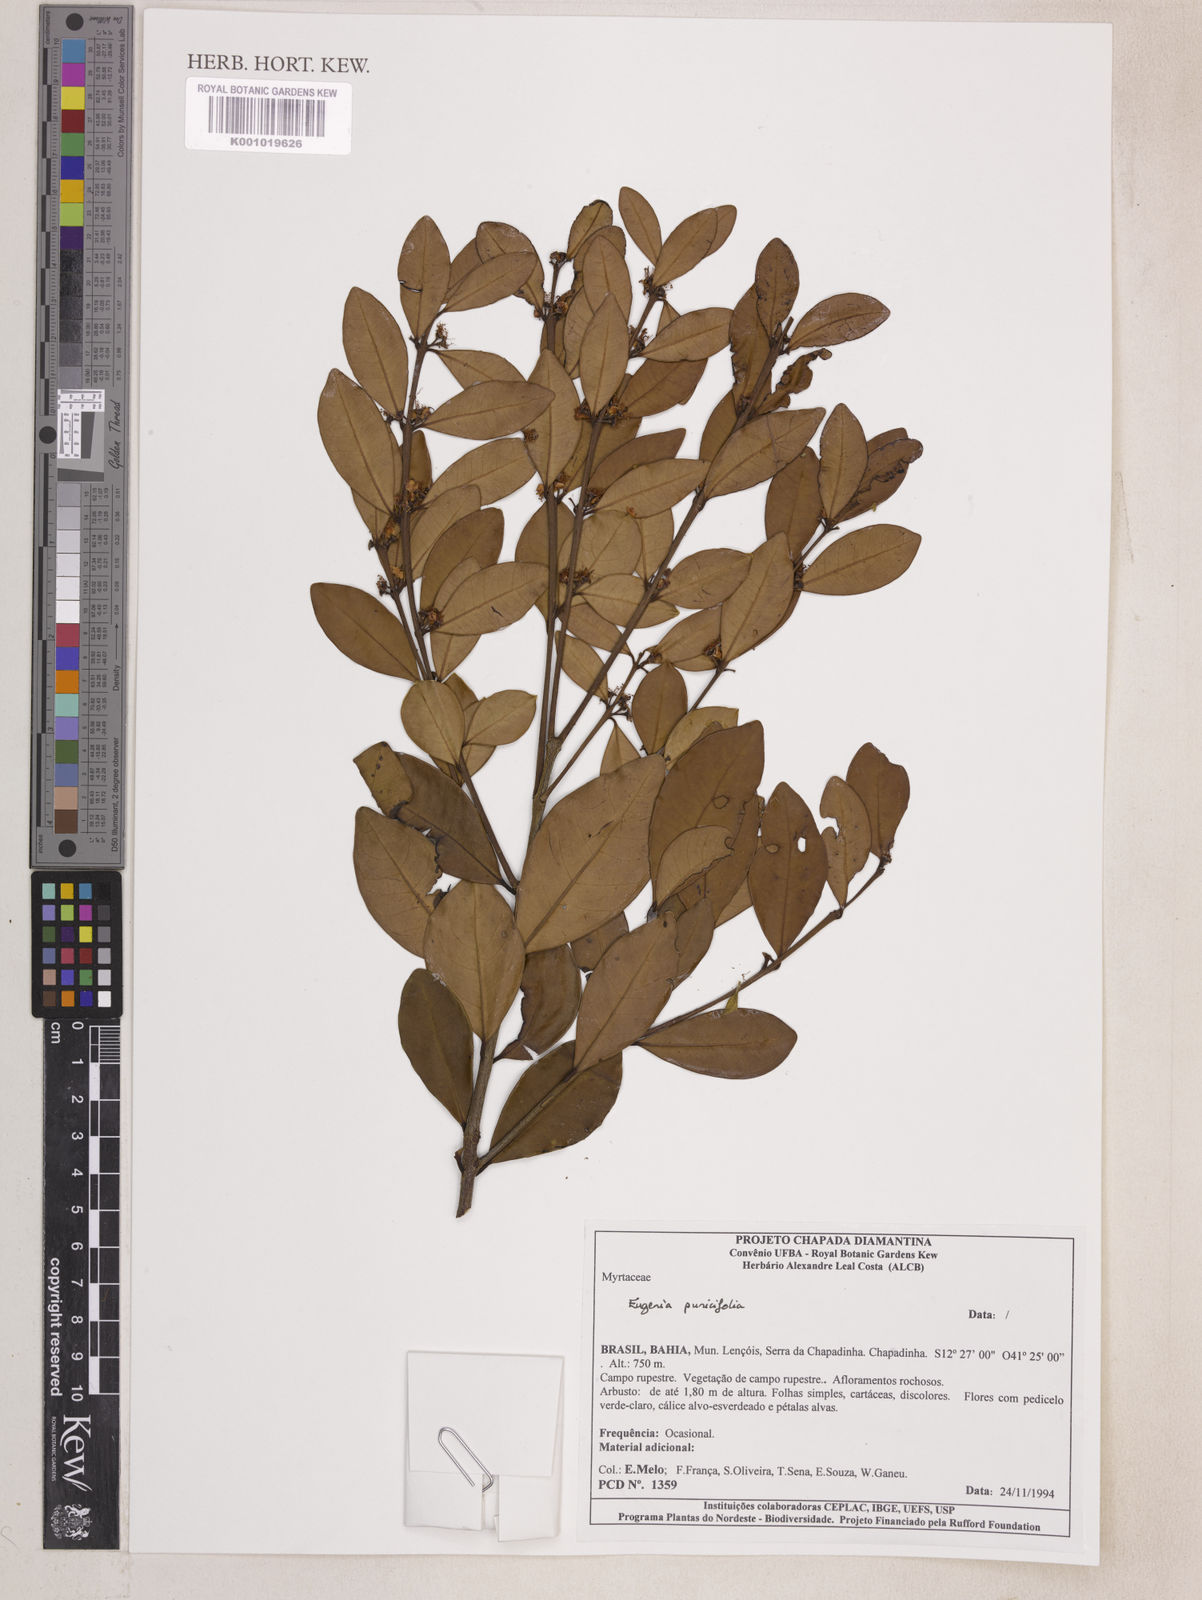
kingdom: Plantae
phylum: Tracheophyta
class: Magnoliopsida
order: Myrtales
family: Myrtaceae
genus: Eugenia
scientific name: Eugenia punicifolia
